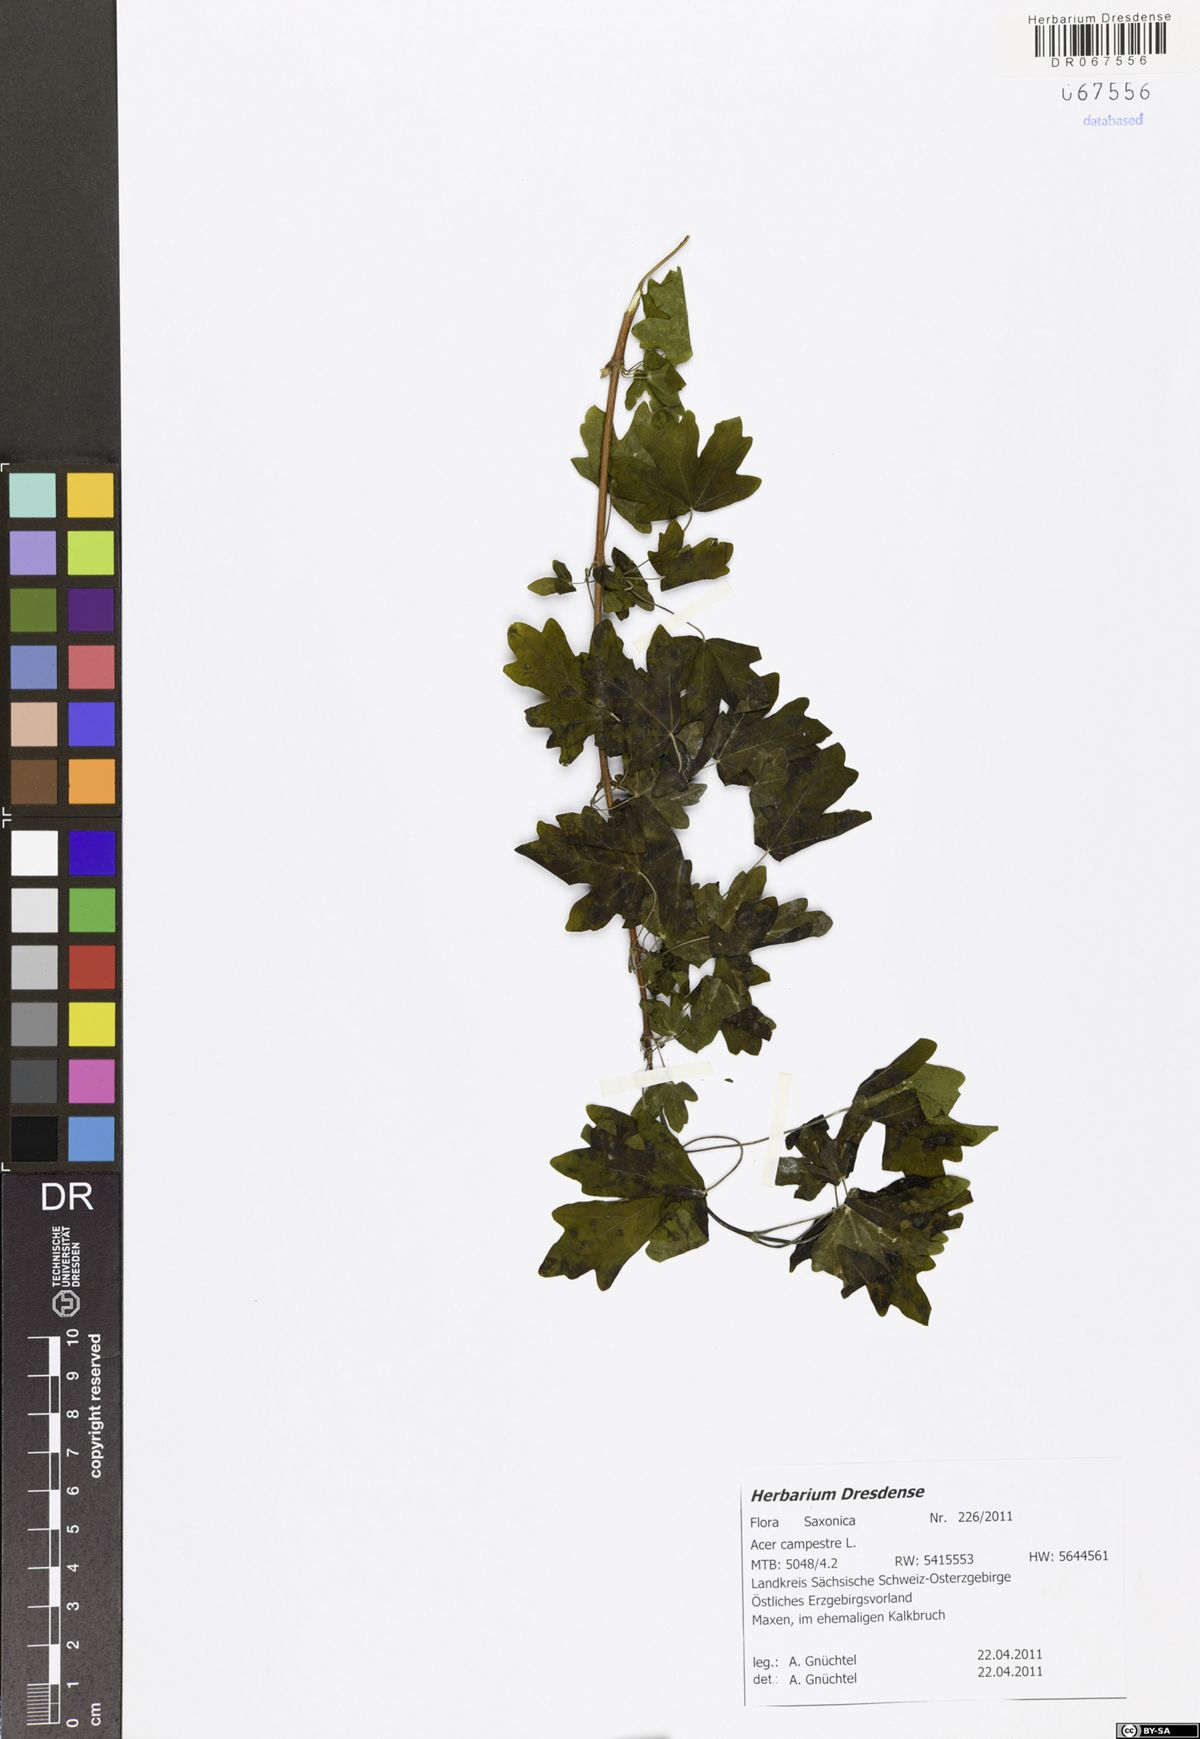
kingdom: Plantae
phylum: Tracheophyta
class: Magnoliopsida
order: Sapindales
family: Sapindaceae
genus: Acer
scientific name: Acer campestre
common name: Field maple
